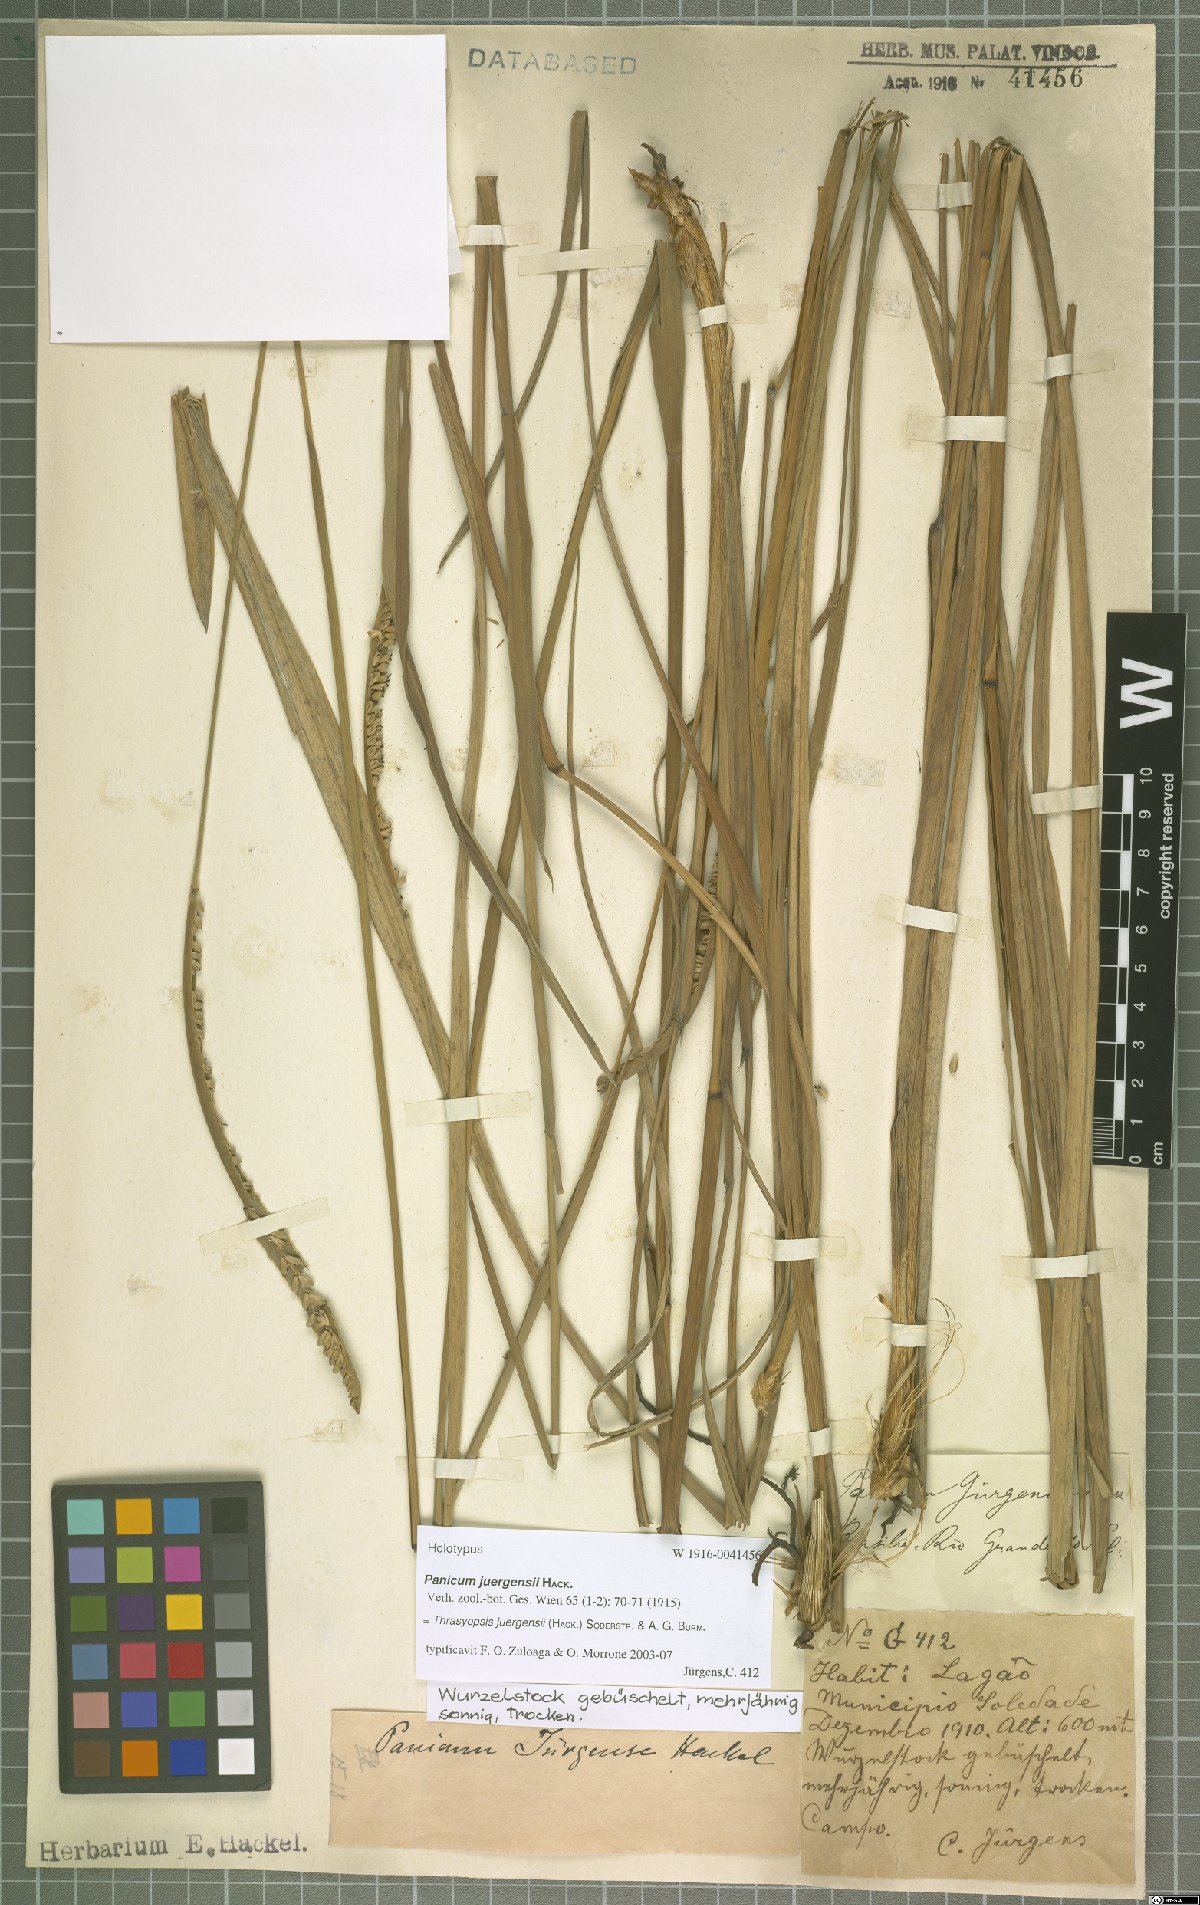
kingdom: Plantae
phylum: Tracheophyta
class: Liliopsida
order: Poales
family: Poaceae
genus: Paspalum
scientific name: Paspalum rawitscheri
